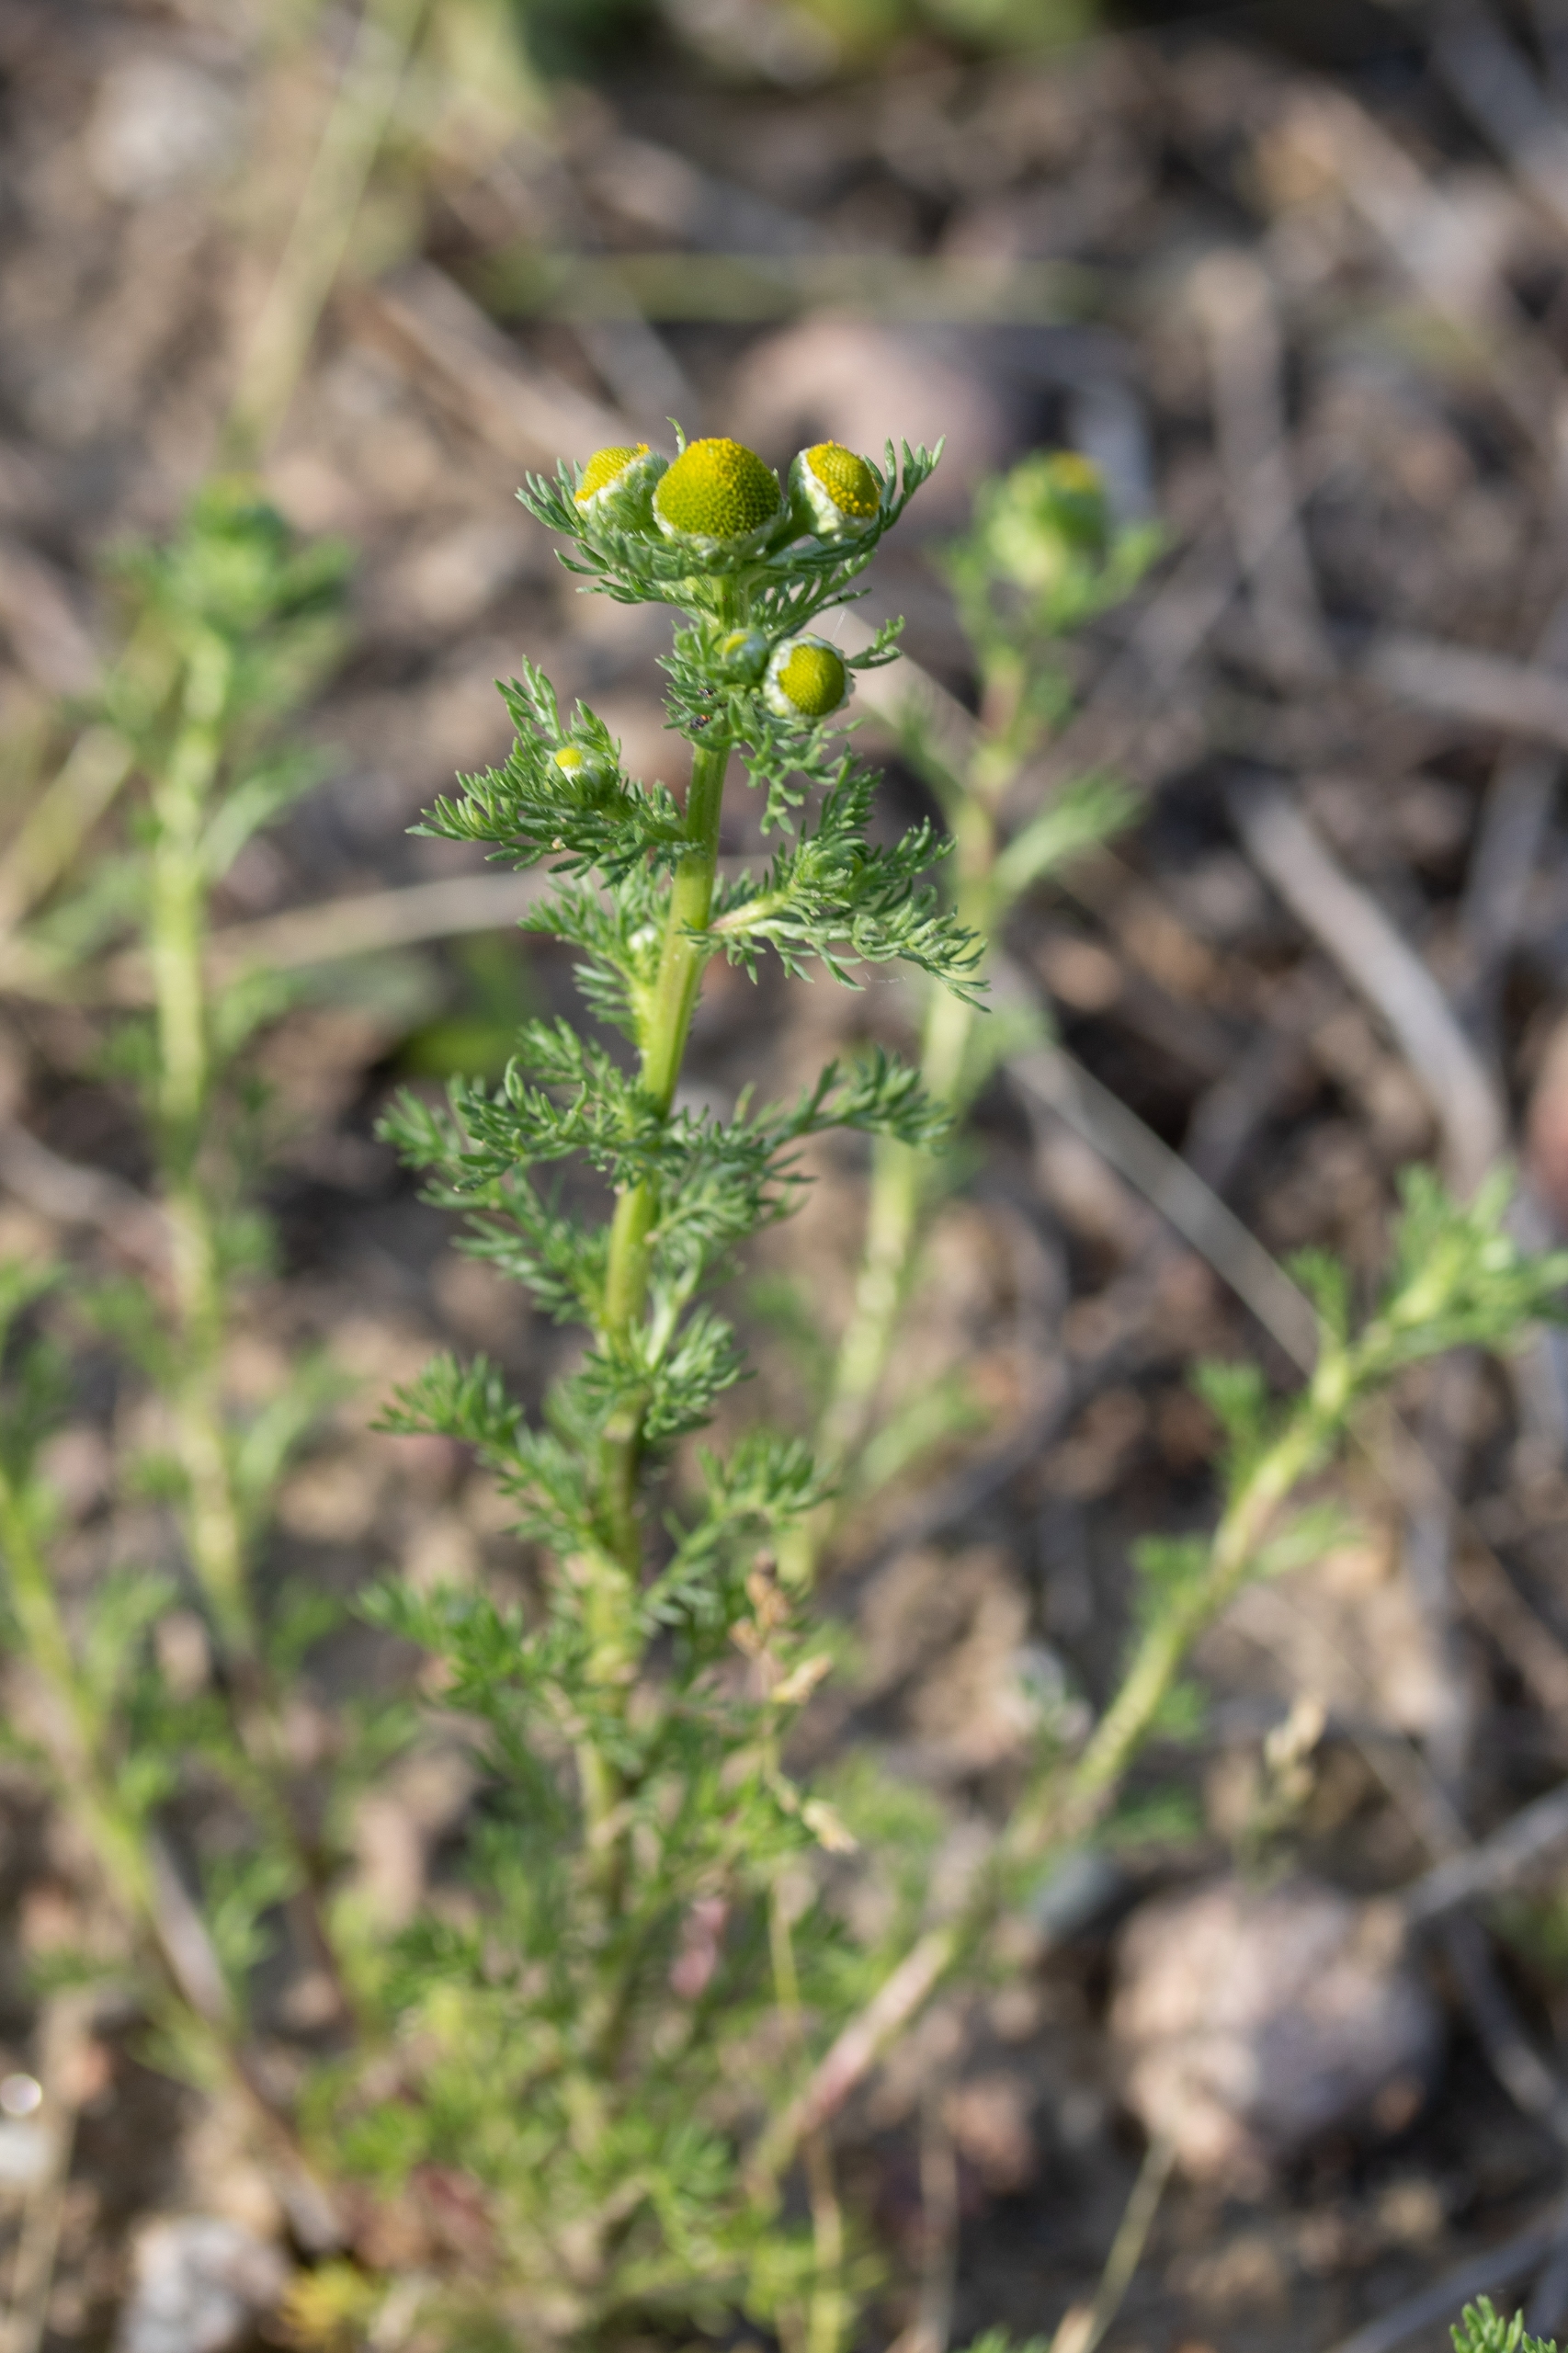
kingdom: Plantae
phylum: Tracheophyta
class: Magnoliopsida
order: Asterales
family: Asteraceae
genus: Matricaria
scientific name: Matricaria discoidea
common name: Skive-kamille
